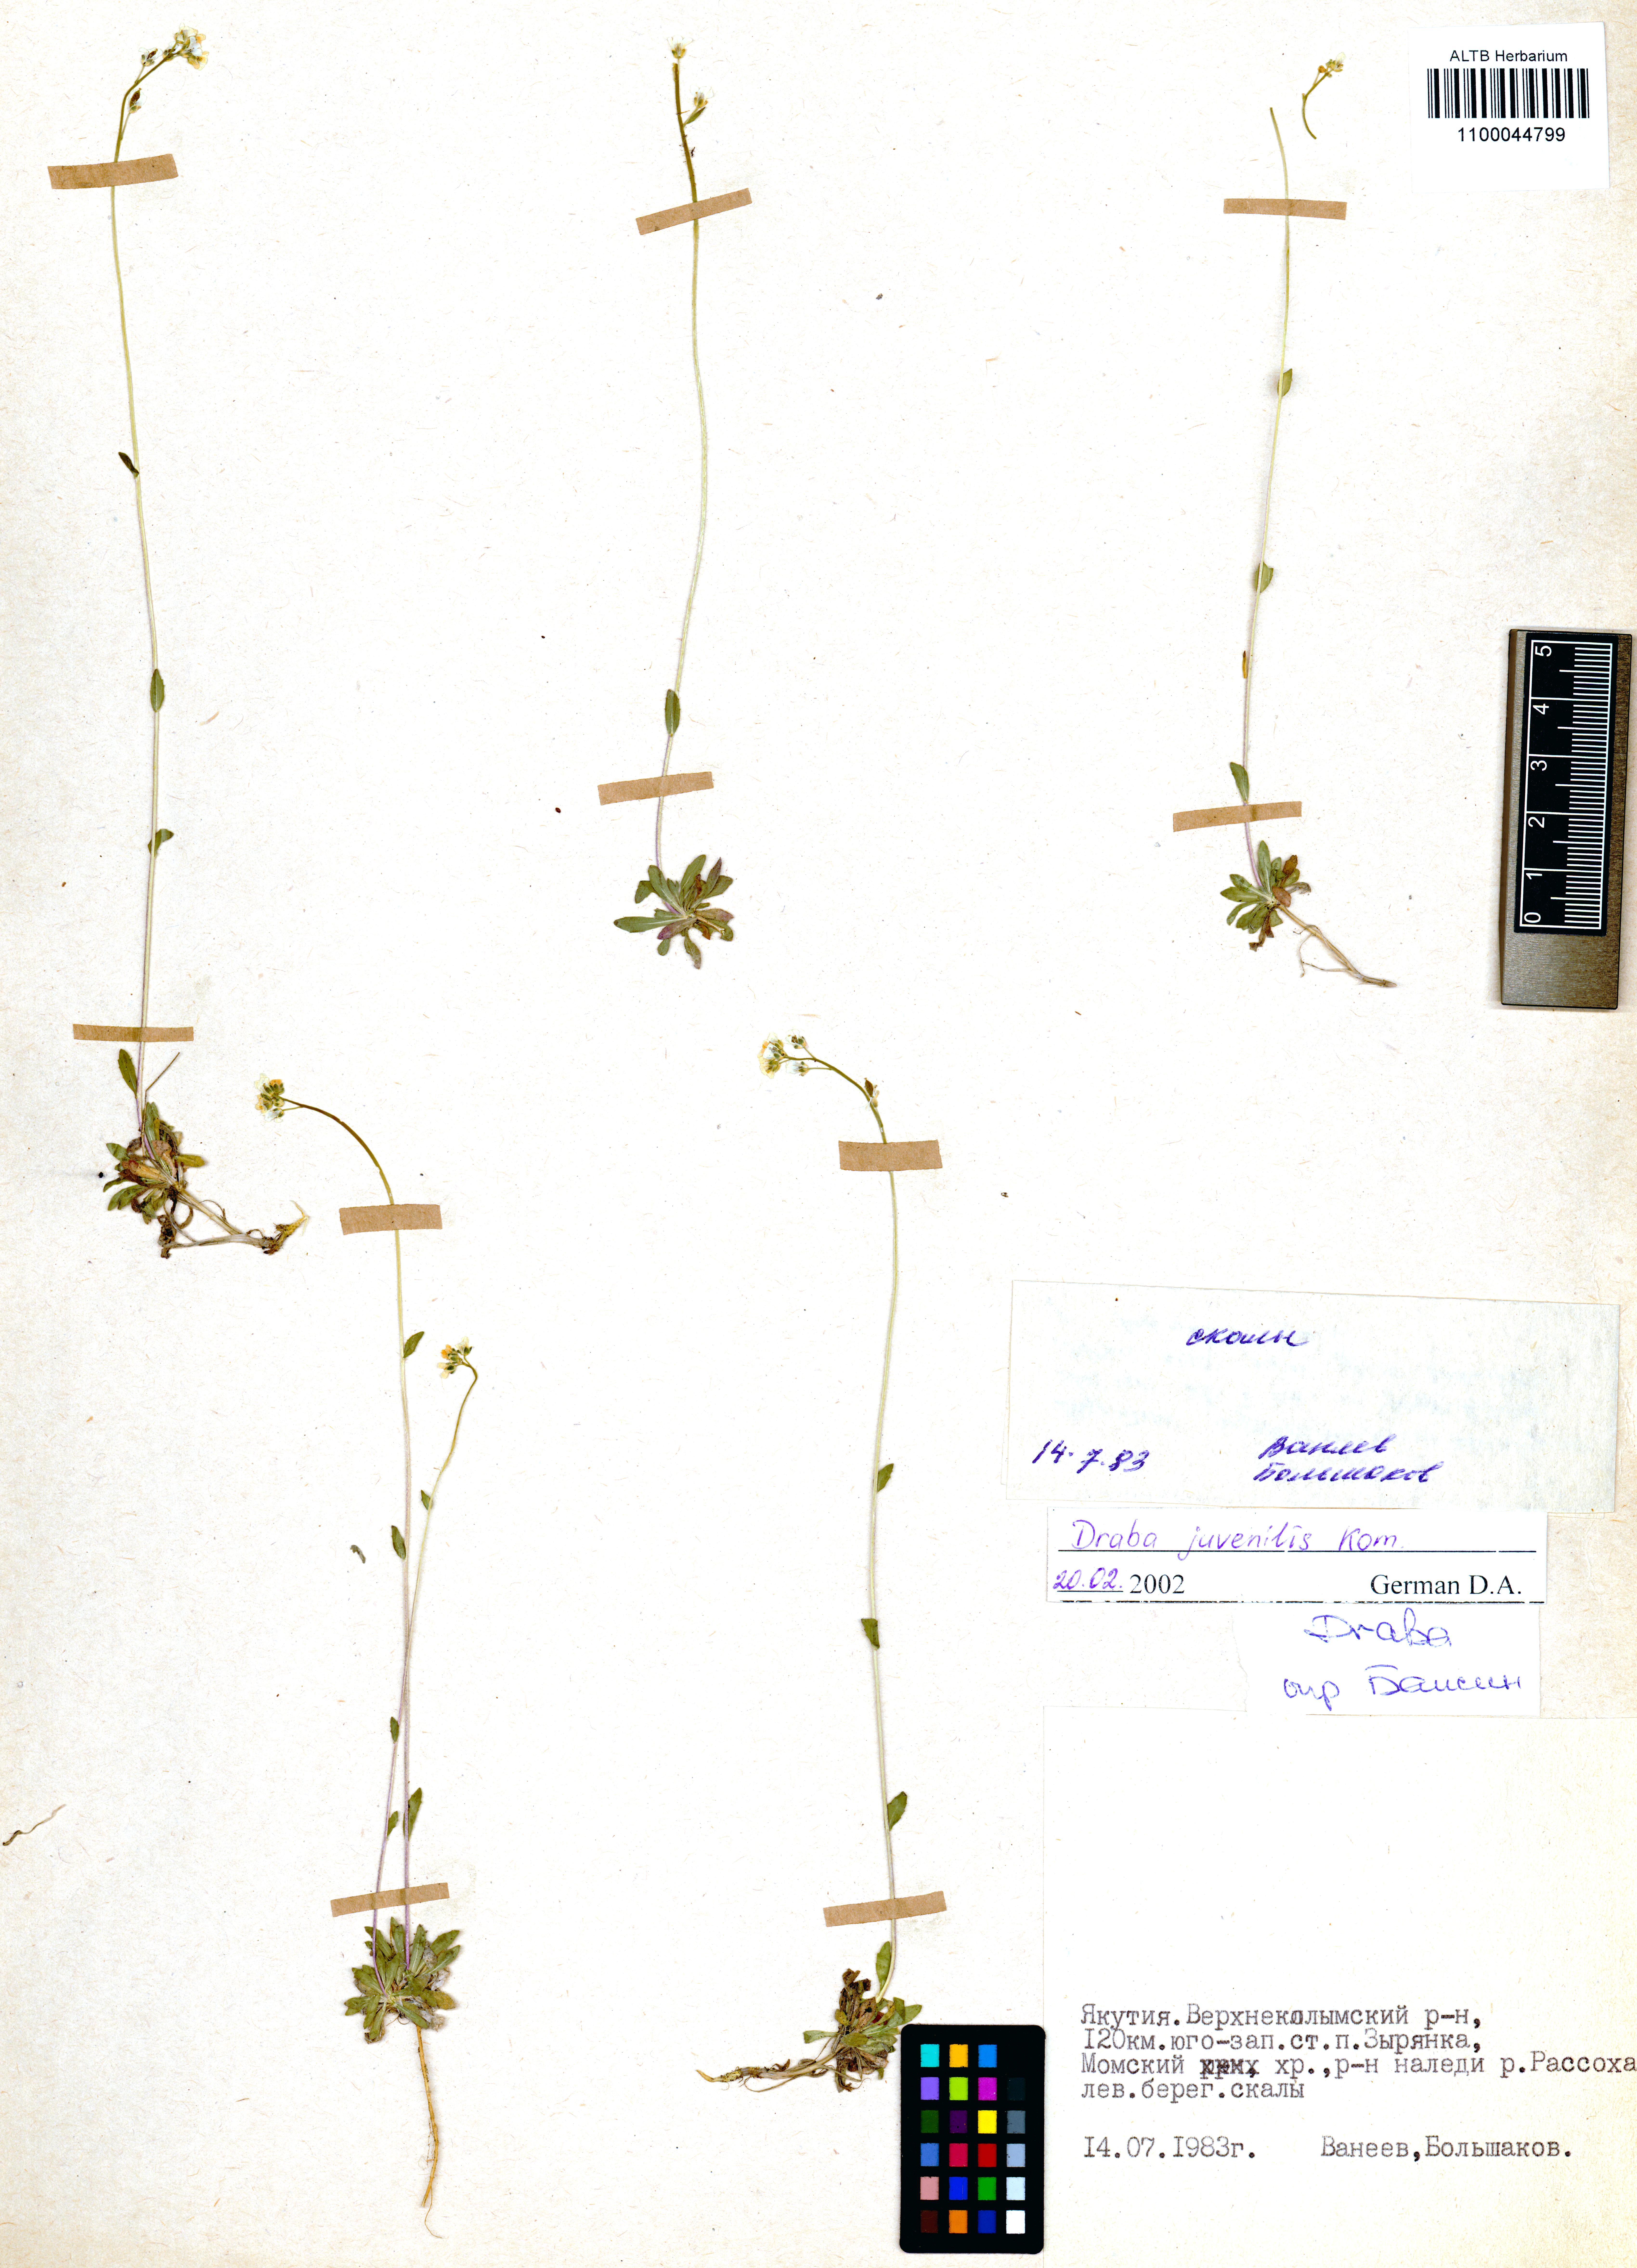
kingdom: Plantae
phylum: Tracheophyta
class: Magnoliopsida
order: Brassicales
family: Brassicaceae
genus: Draba
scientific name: Draba juvenilis
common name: Long-stalked draba
